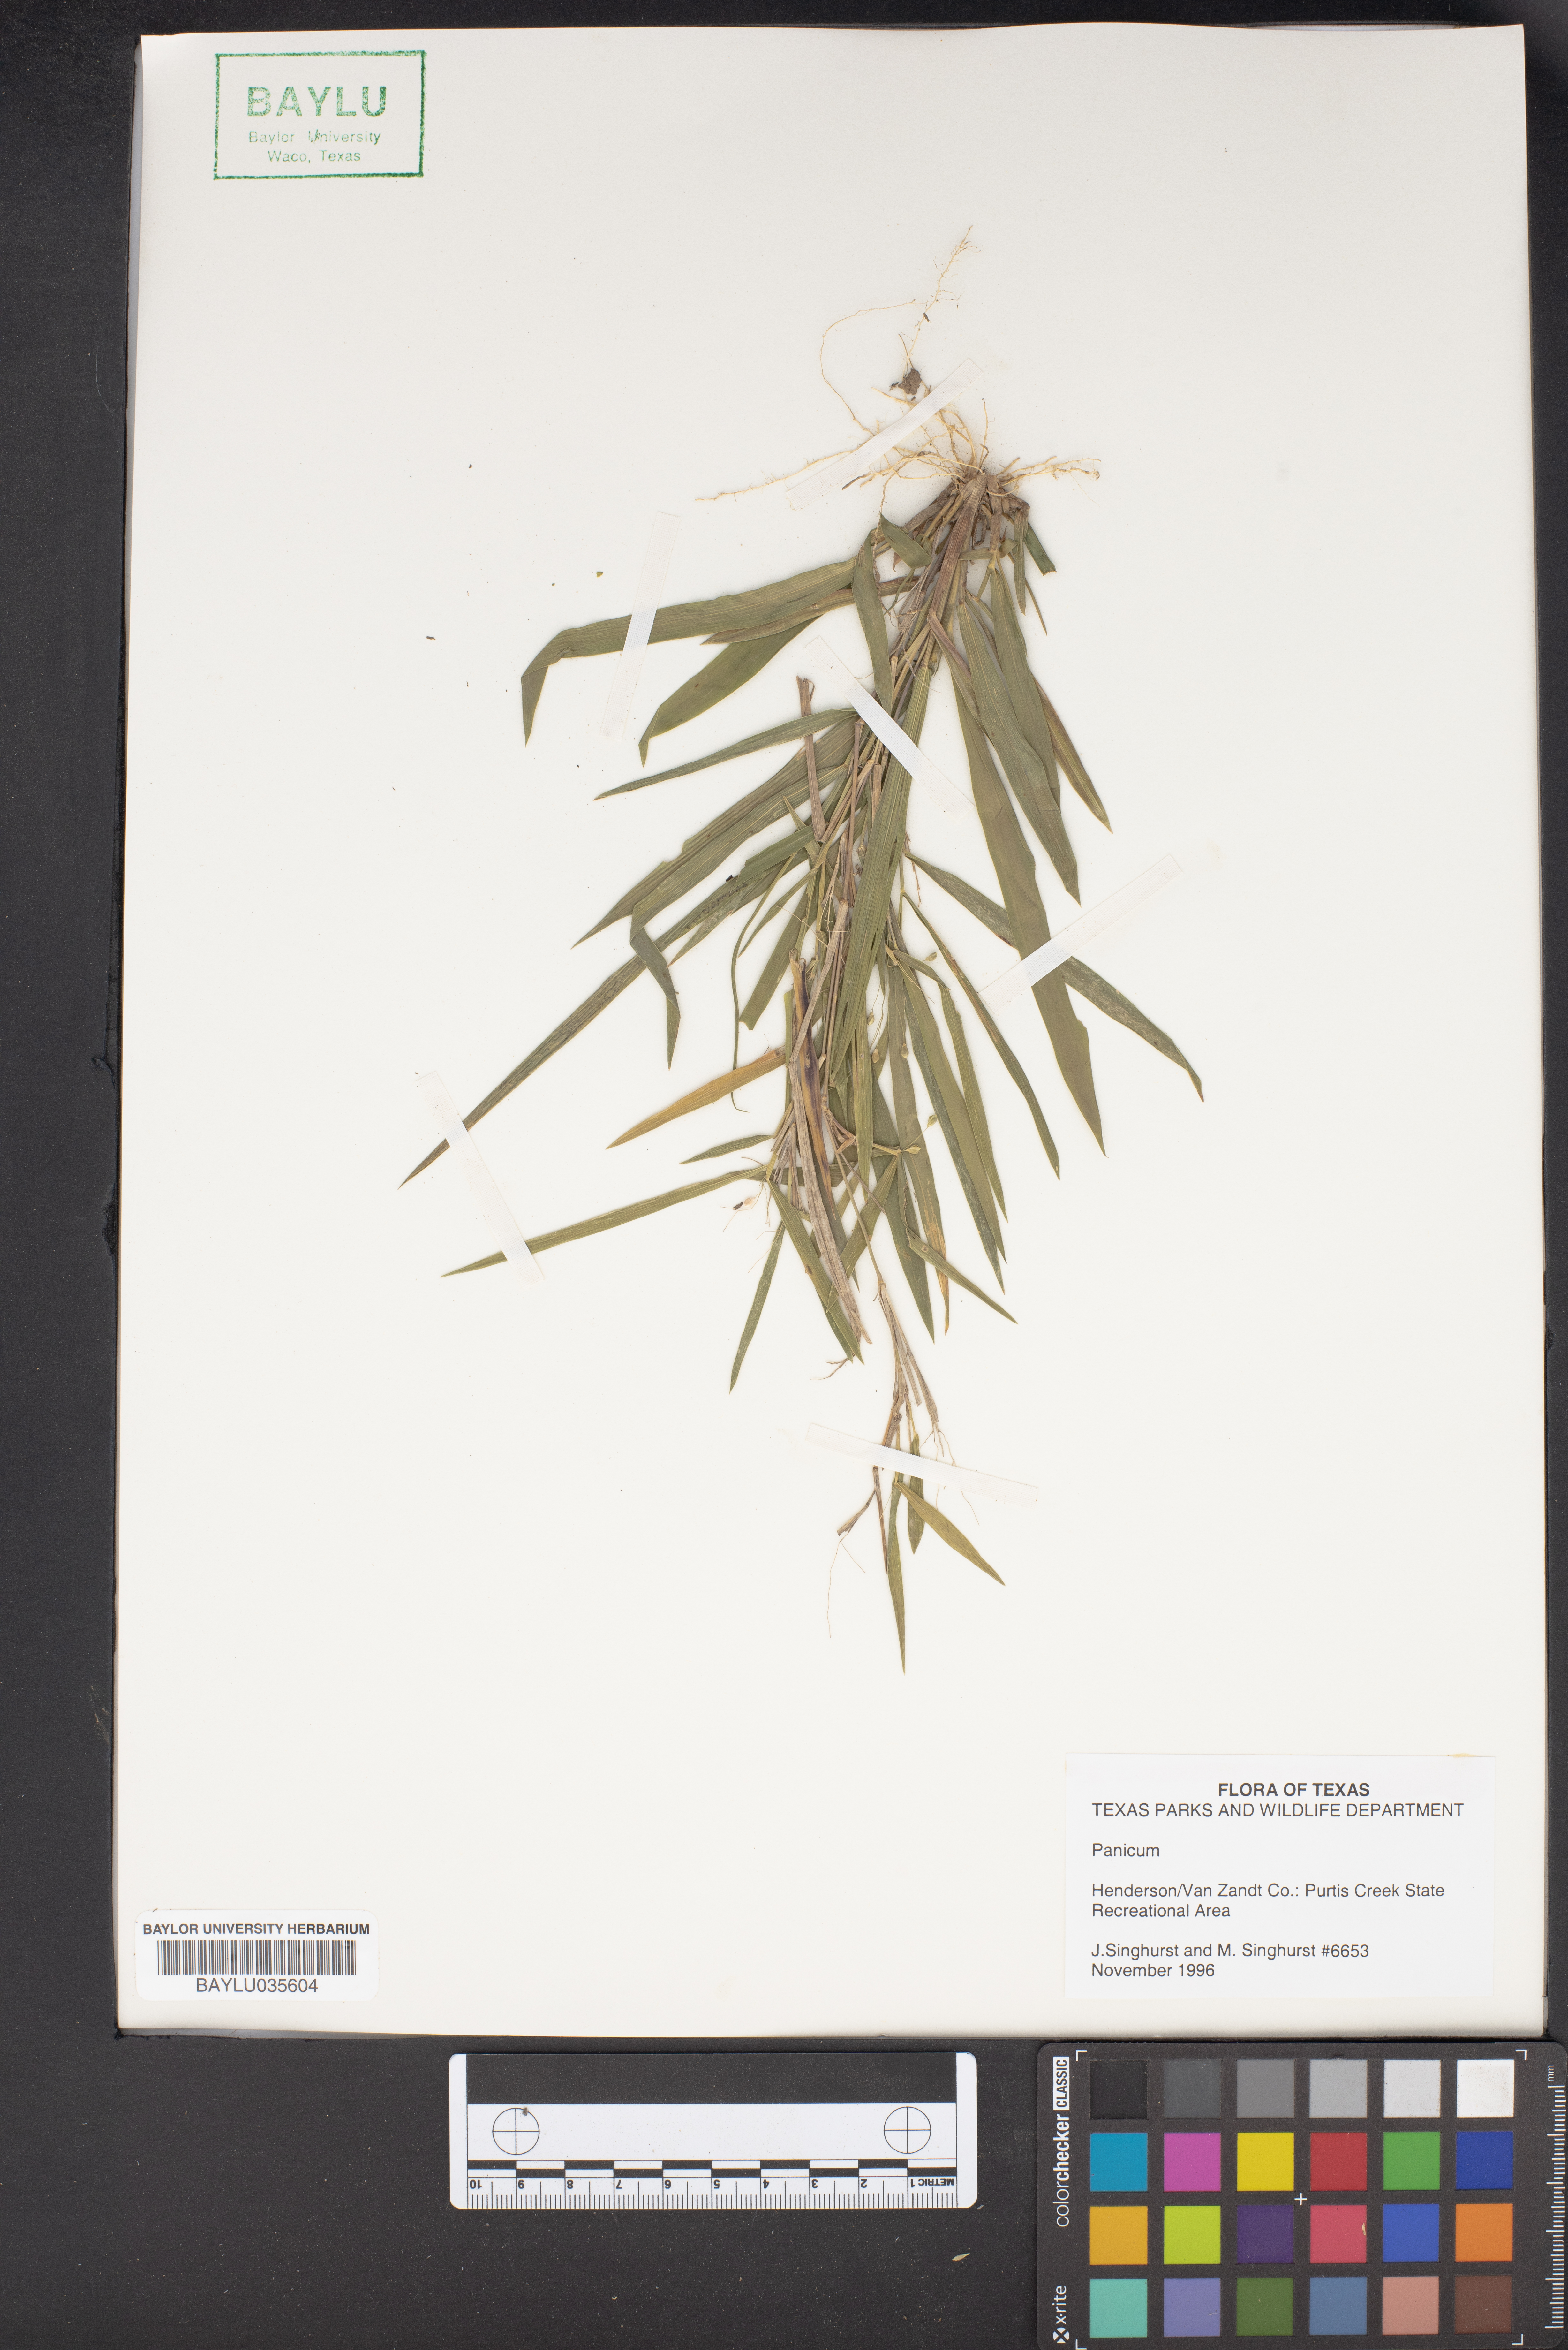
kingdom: Plantae
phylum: Tracheophyta
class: Liliopsida
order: Poales
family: Poaceae
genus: Panicum
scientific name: Panicum
